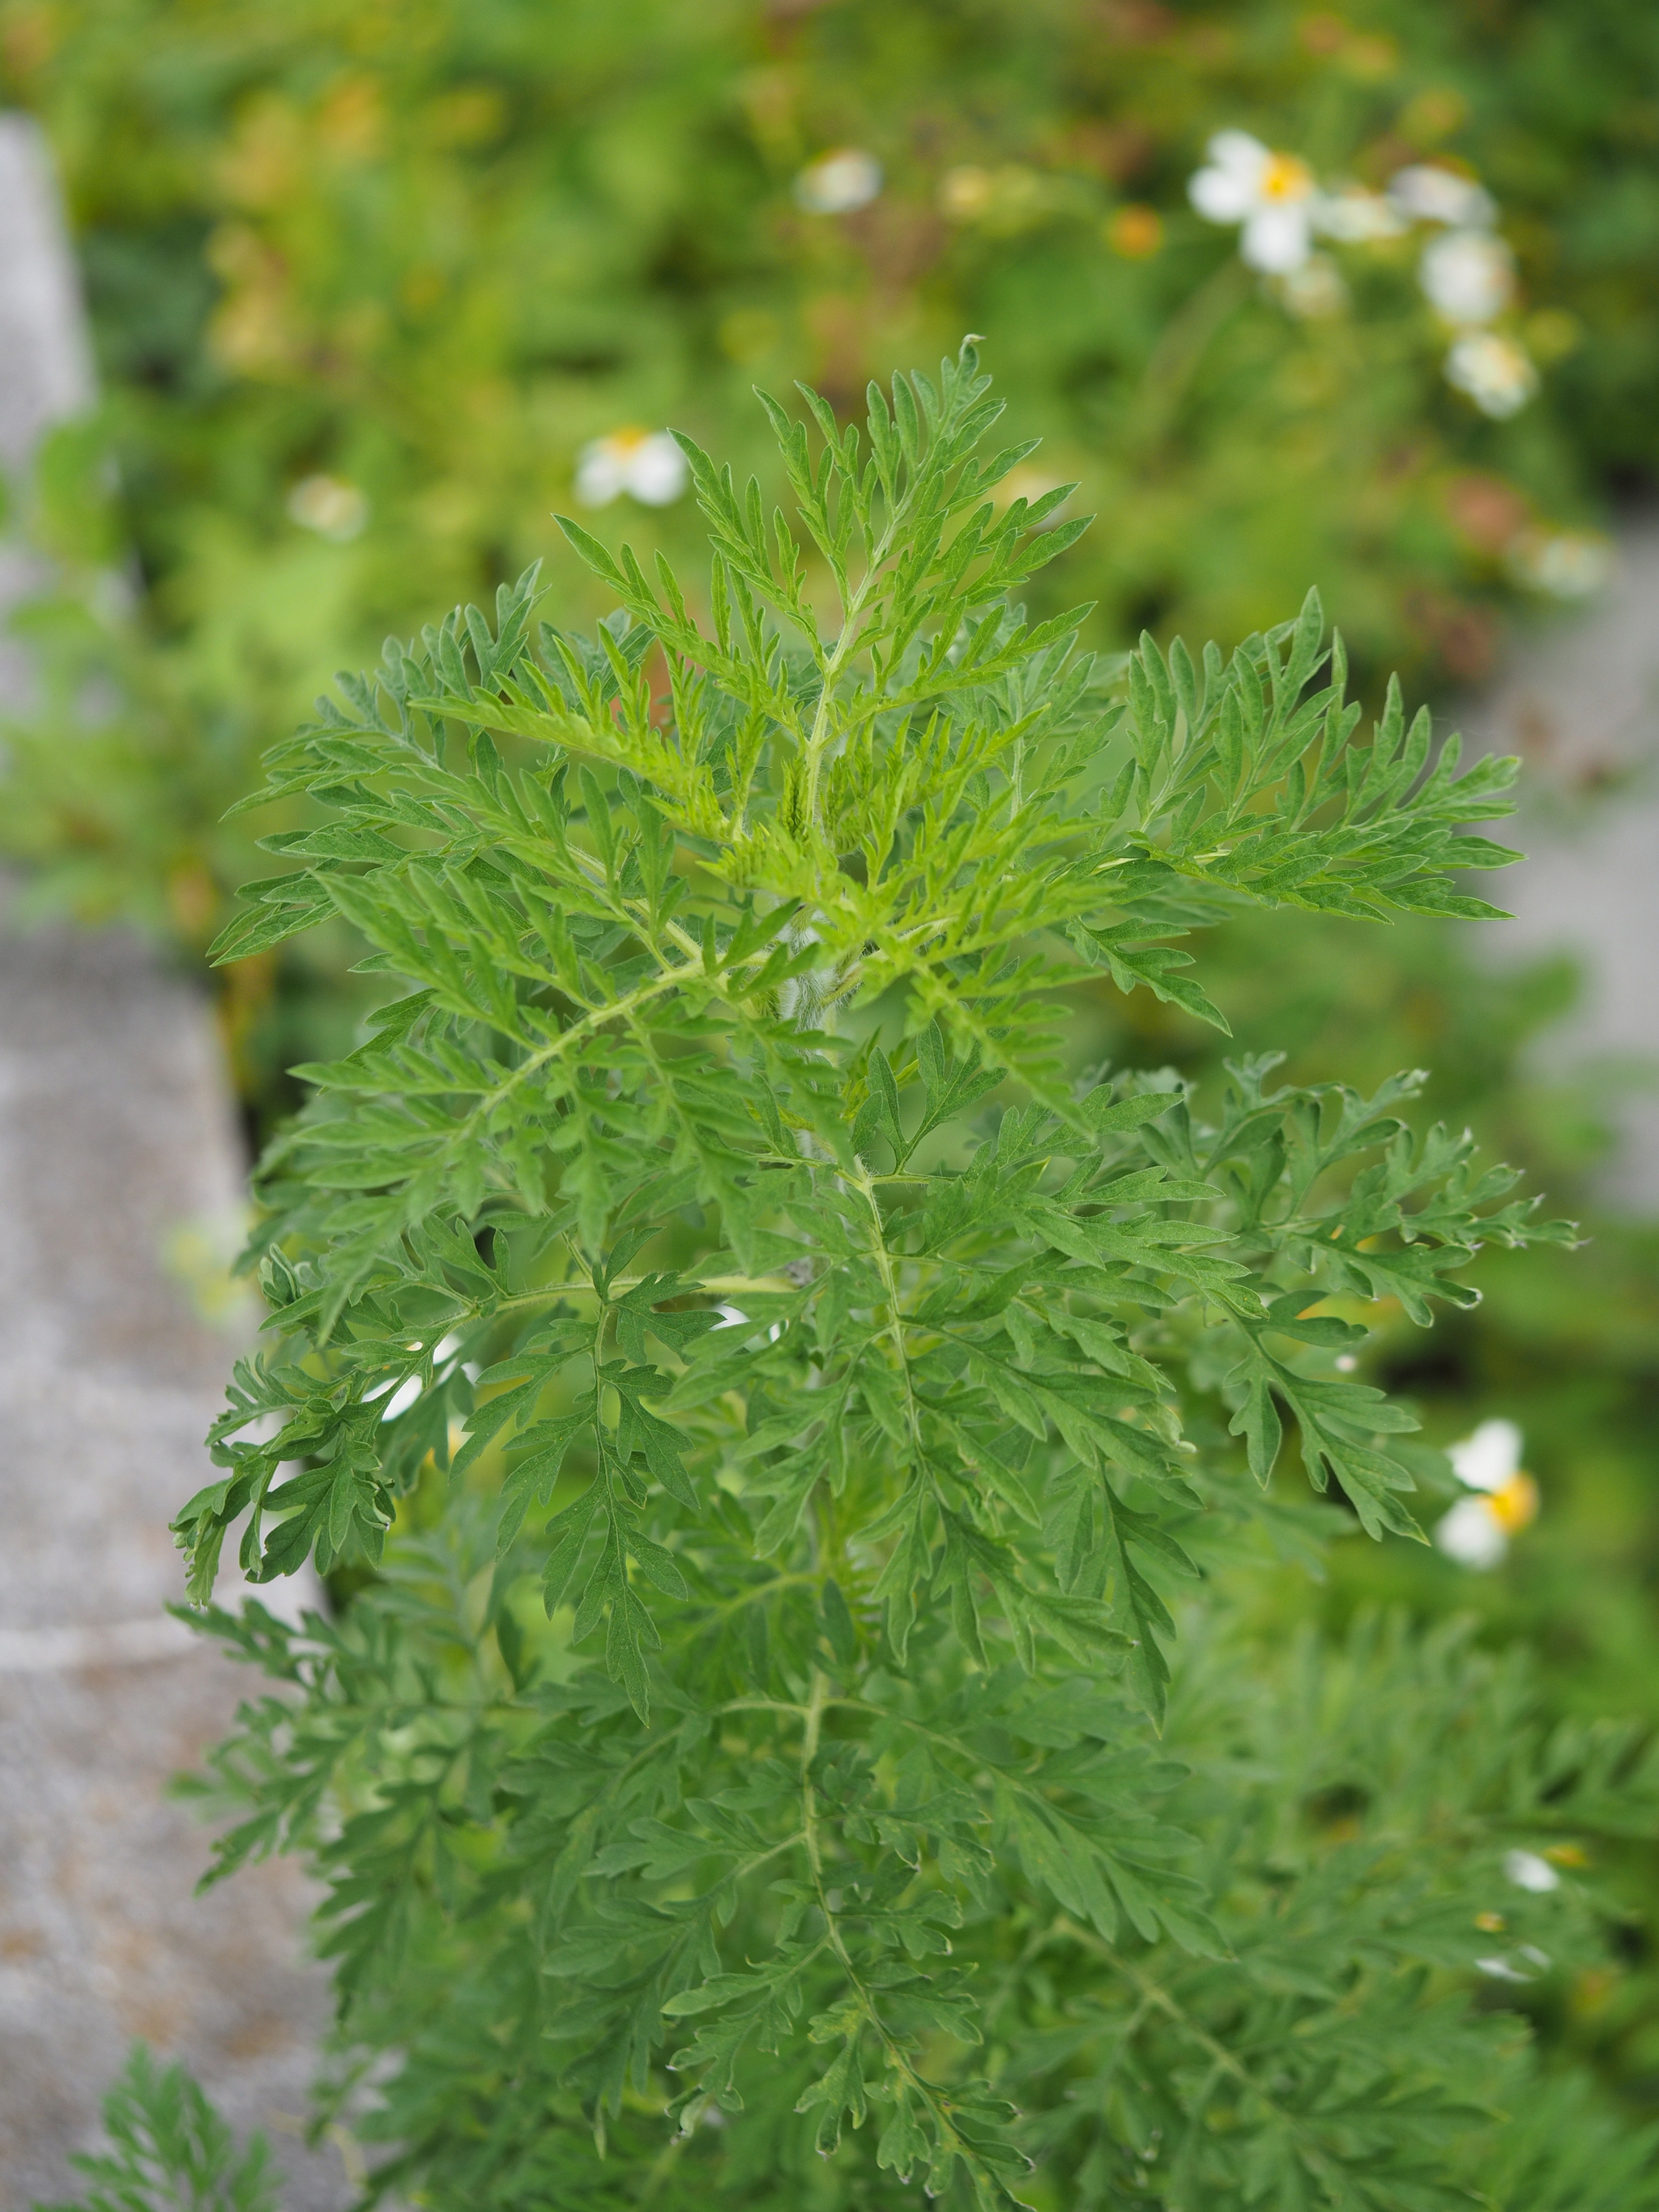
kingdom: Plantae
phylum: Tracheophyta
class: Magnoliopsida
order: Asterales
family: Asteraceae
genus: Ambrosia
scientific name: Ambrosia artemisiifolia
